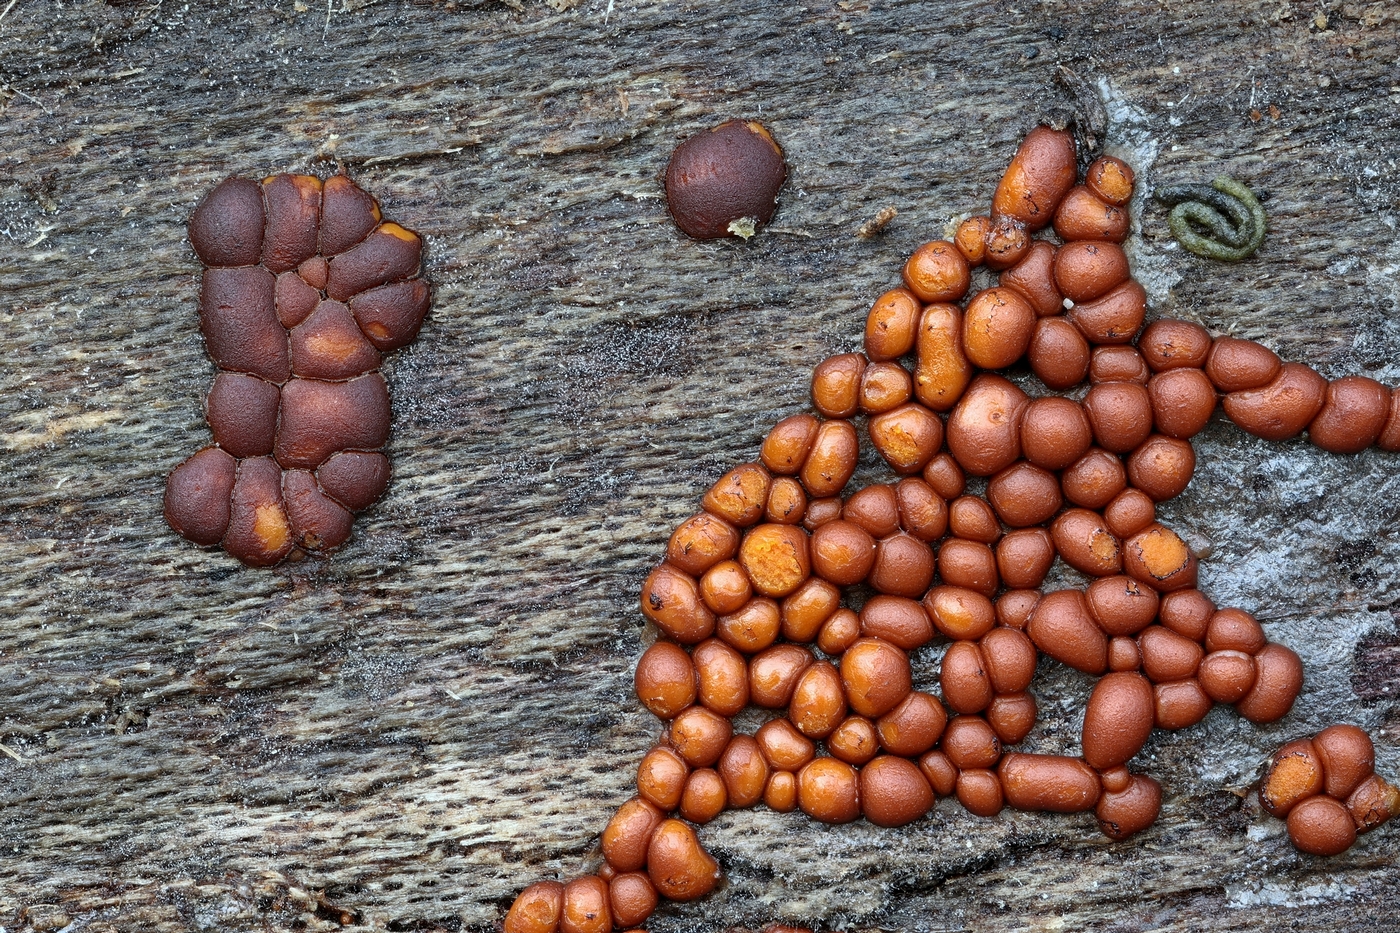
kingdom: Protozoa
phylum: Mycetozoa
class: Myxomycetes
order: Trichiales
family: Trichiaceae
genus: Perichaena
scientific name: Perichaena
